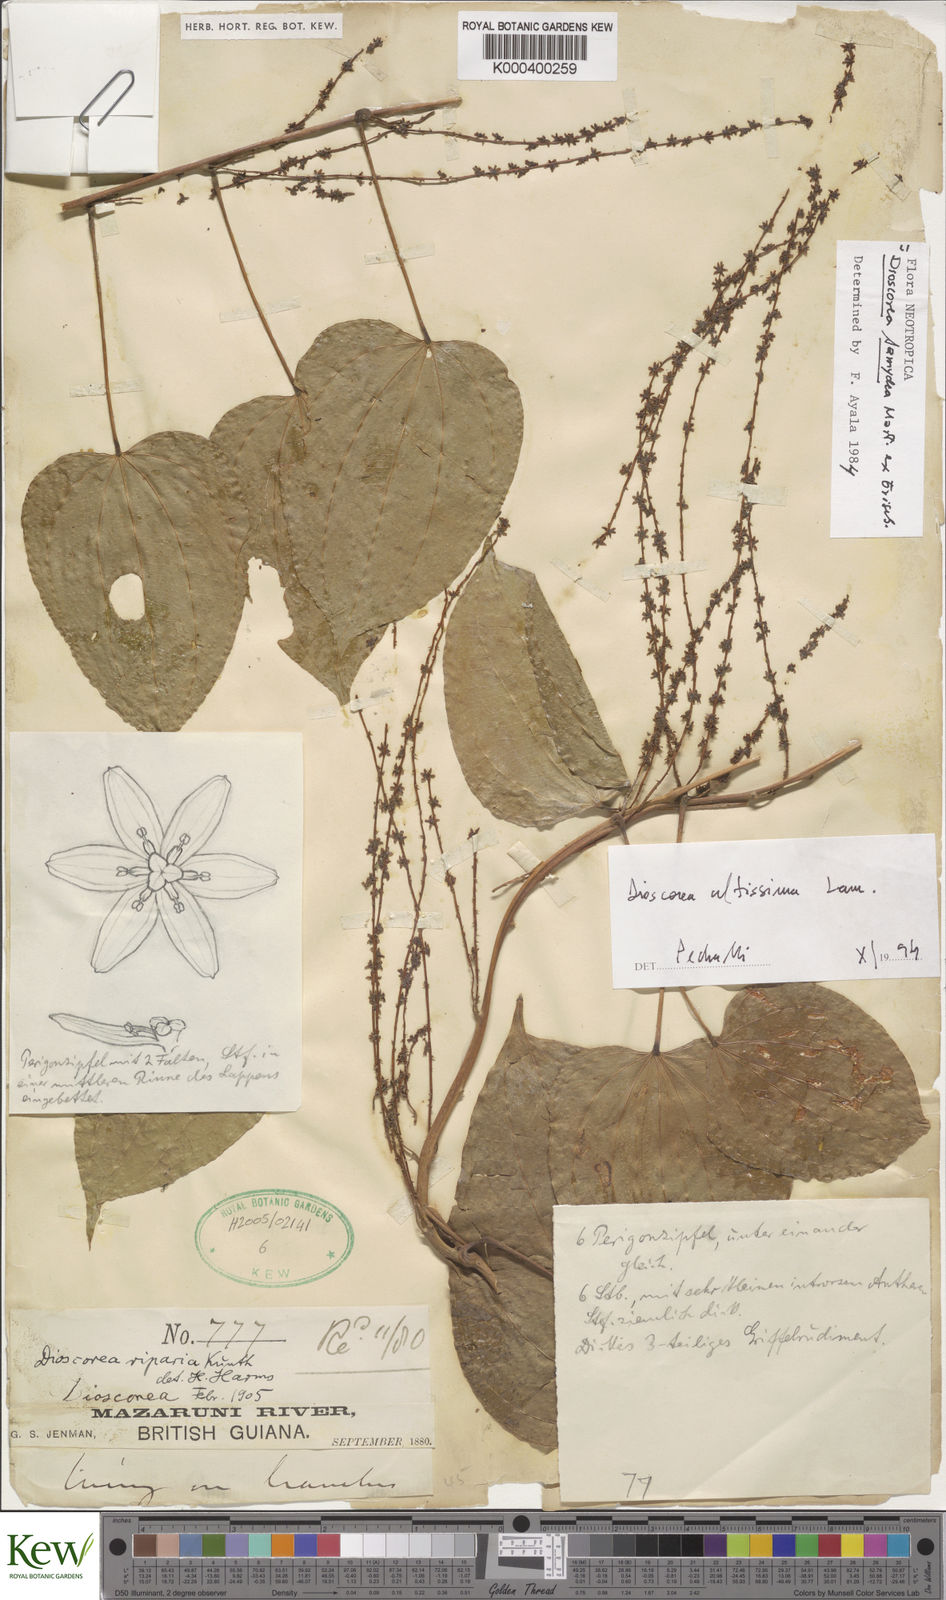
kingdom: Plantae
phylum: Tracheophyta
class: Liliopsida
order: Dioscoreales
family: Dioscoreaceae
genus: Dioscorea
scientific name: Dioscorea chondrocarpa
